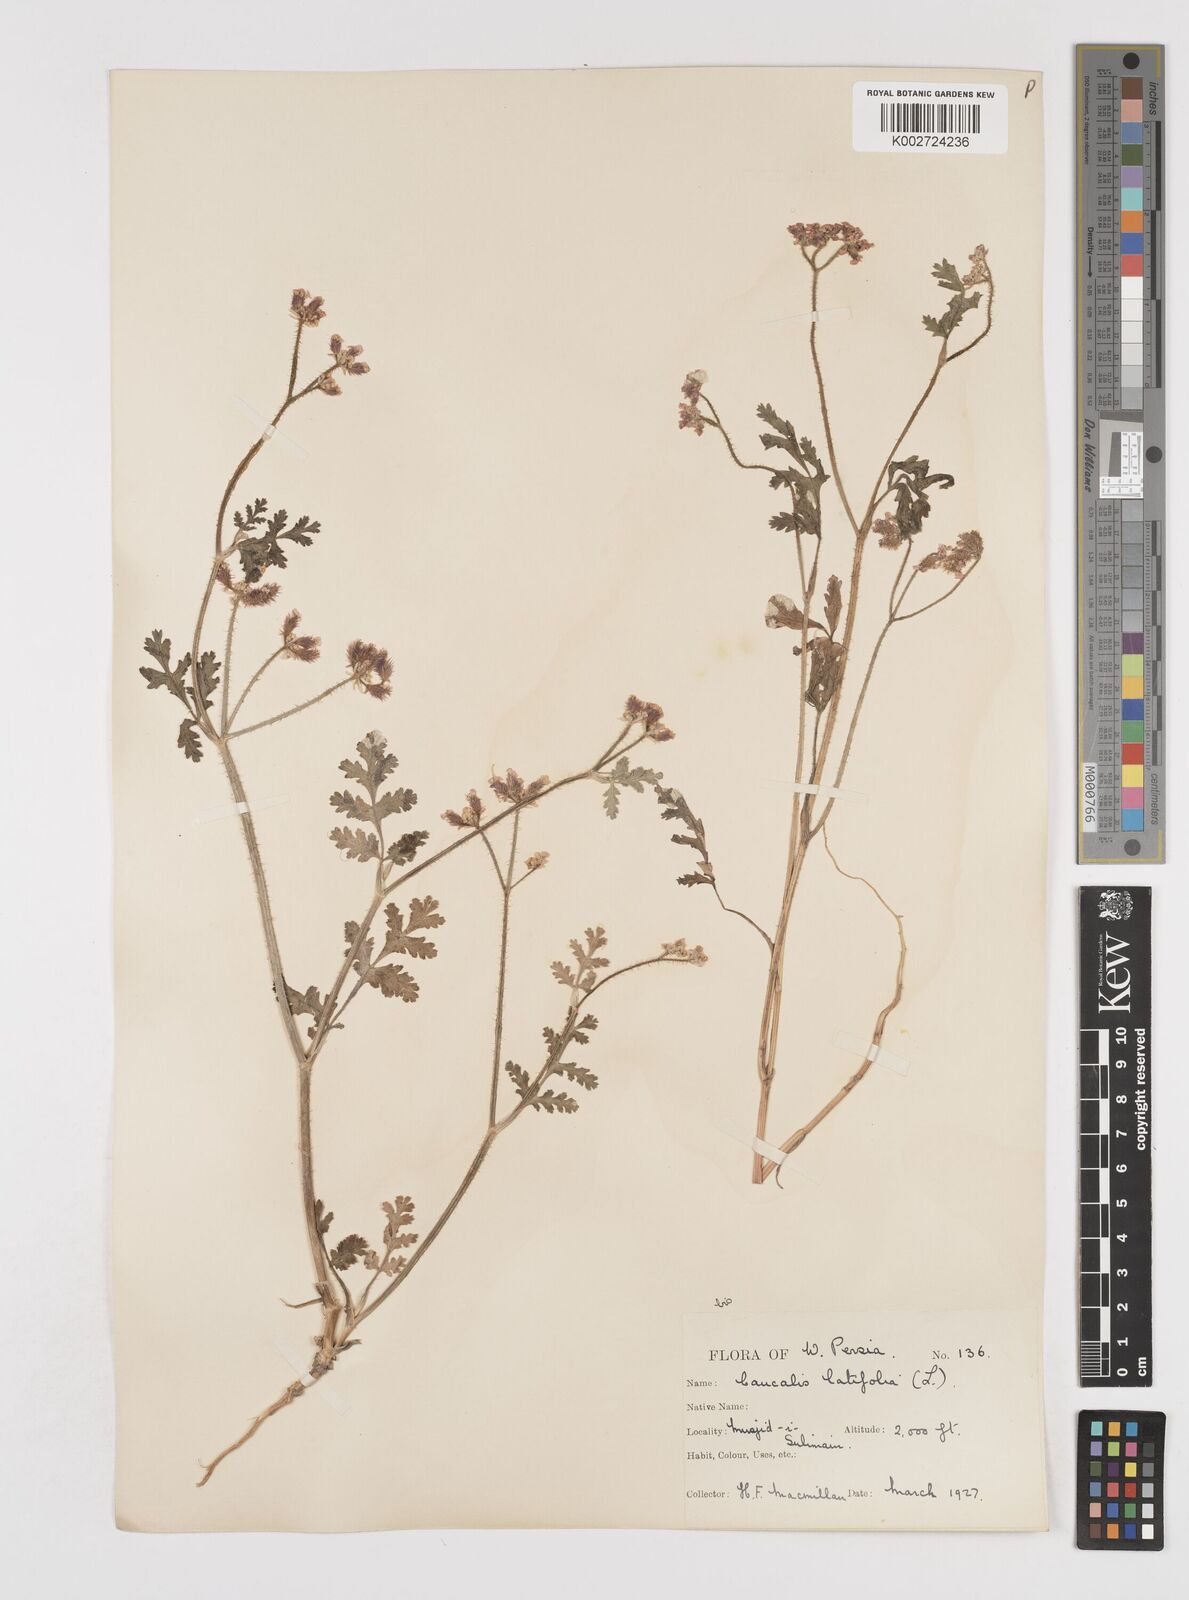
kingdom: Plantae
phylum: Tracheophyta
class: Magnoliopsida
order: Apiales
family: Apiaceae
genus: Turgenia
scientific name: Turgenia latifolia
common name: Greater bur-parsley
